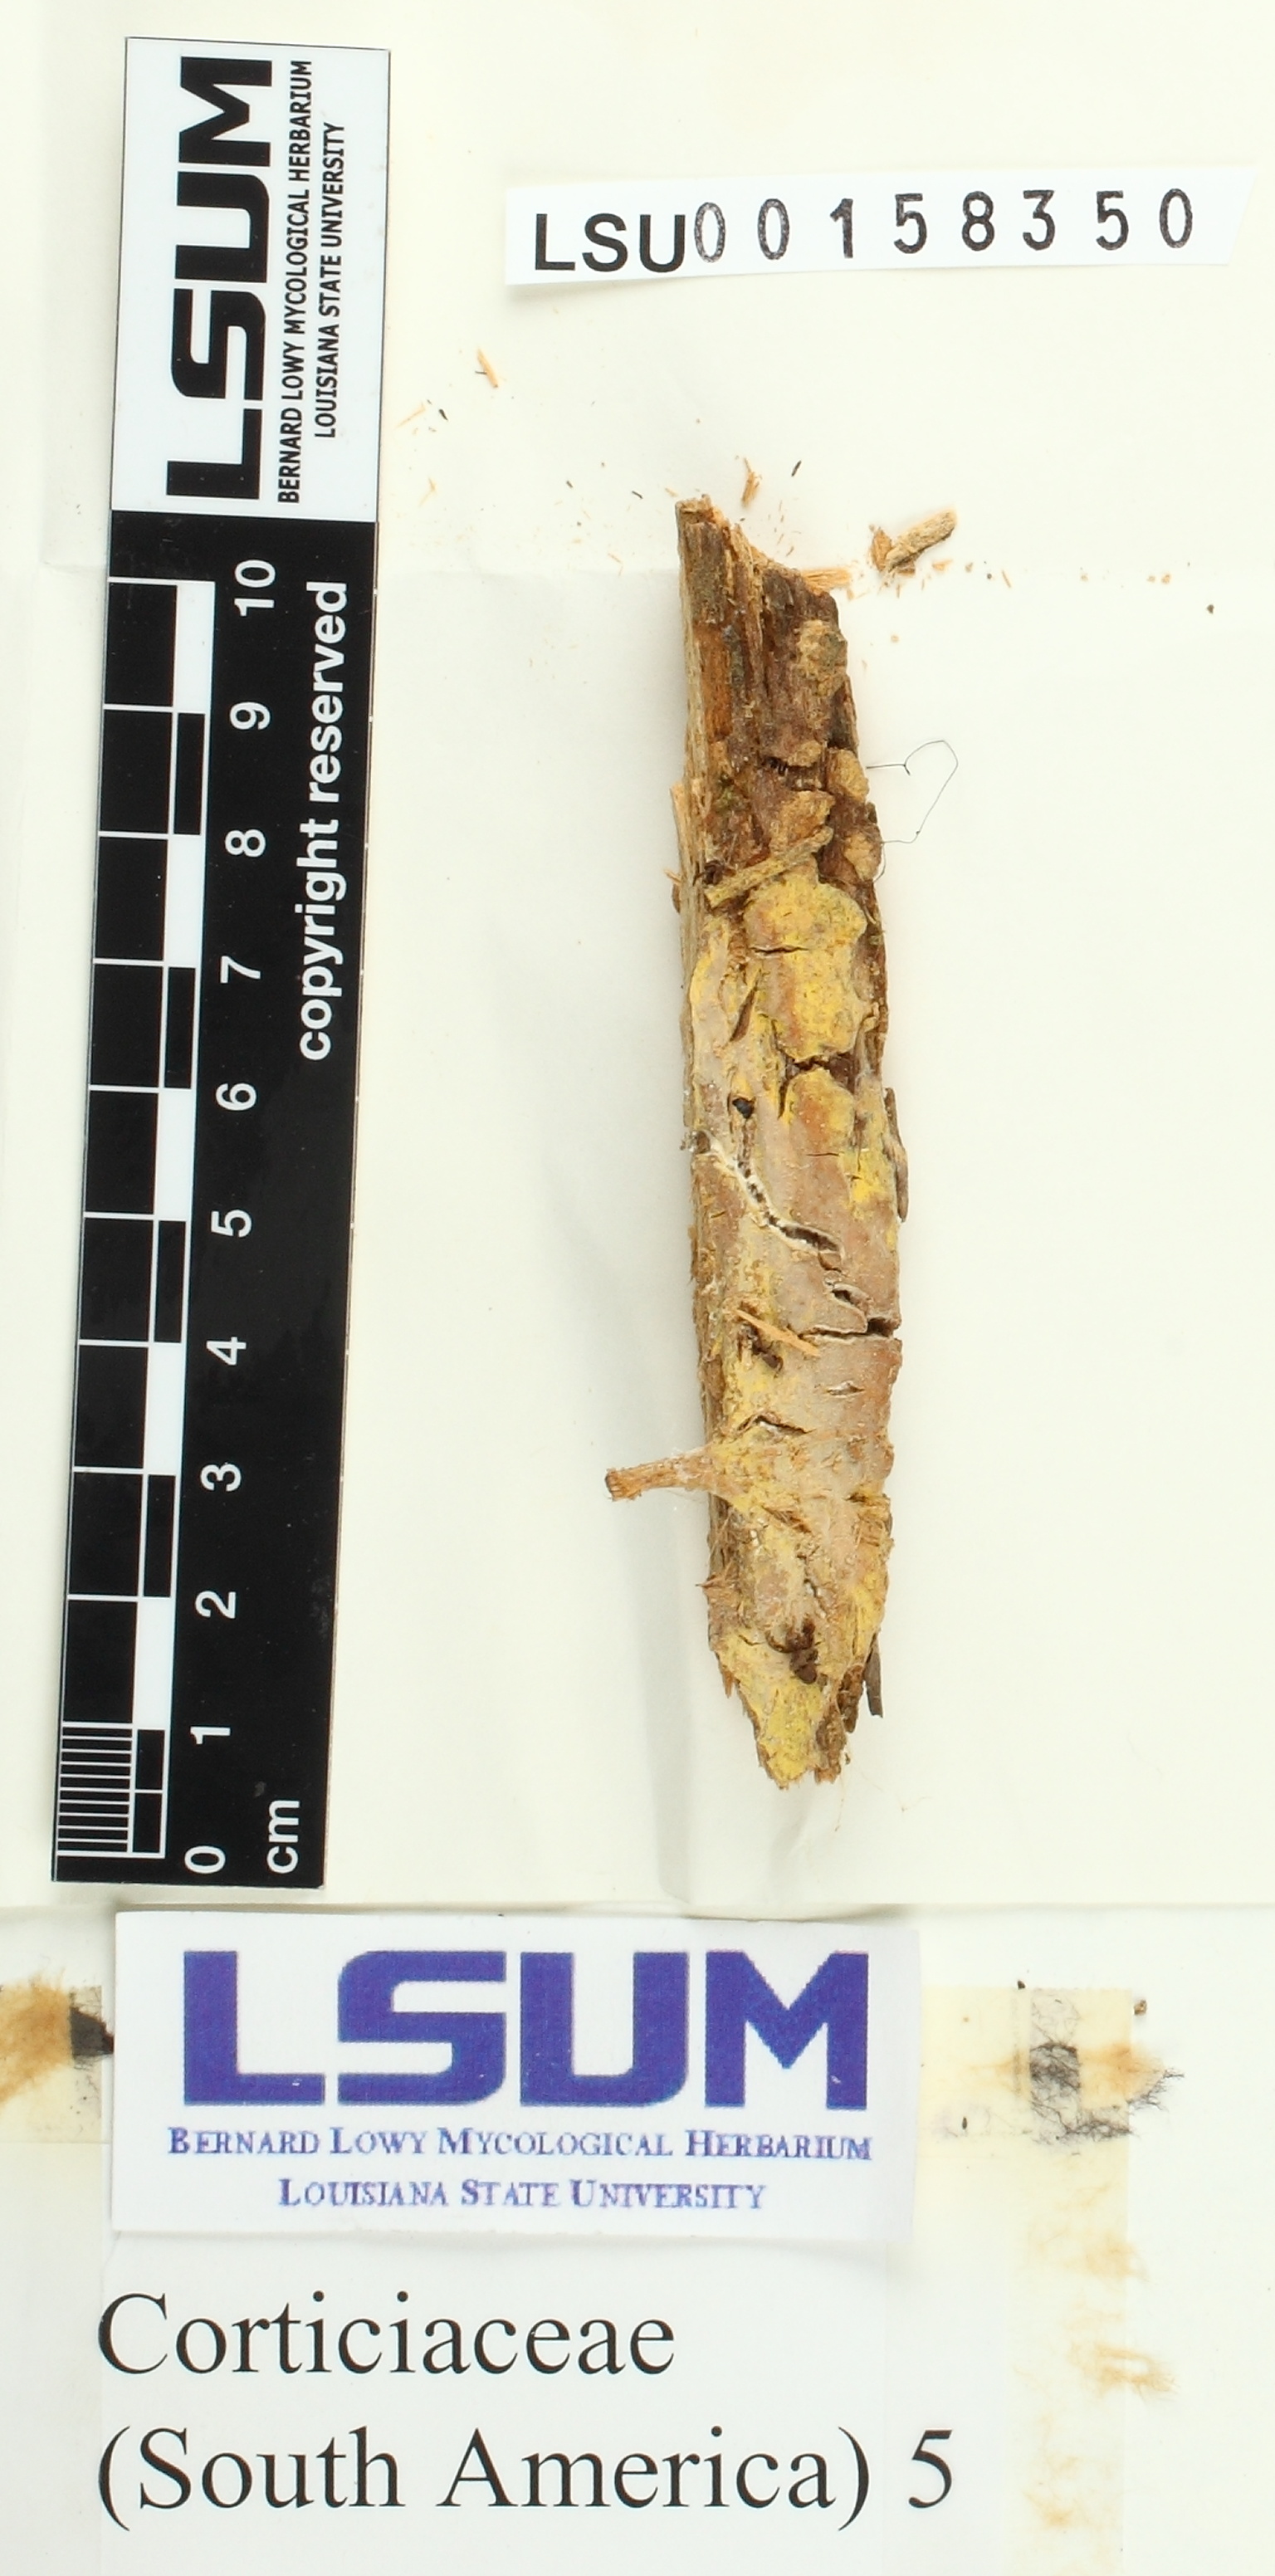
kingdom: Fungi
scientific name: Fungi
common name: Fungi
